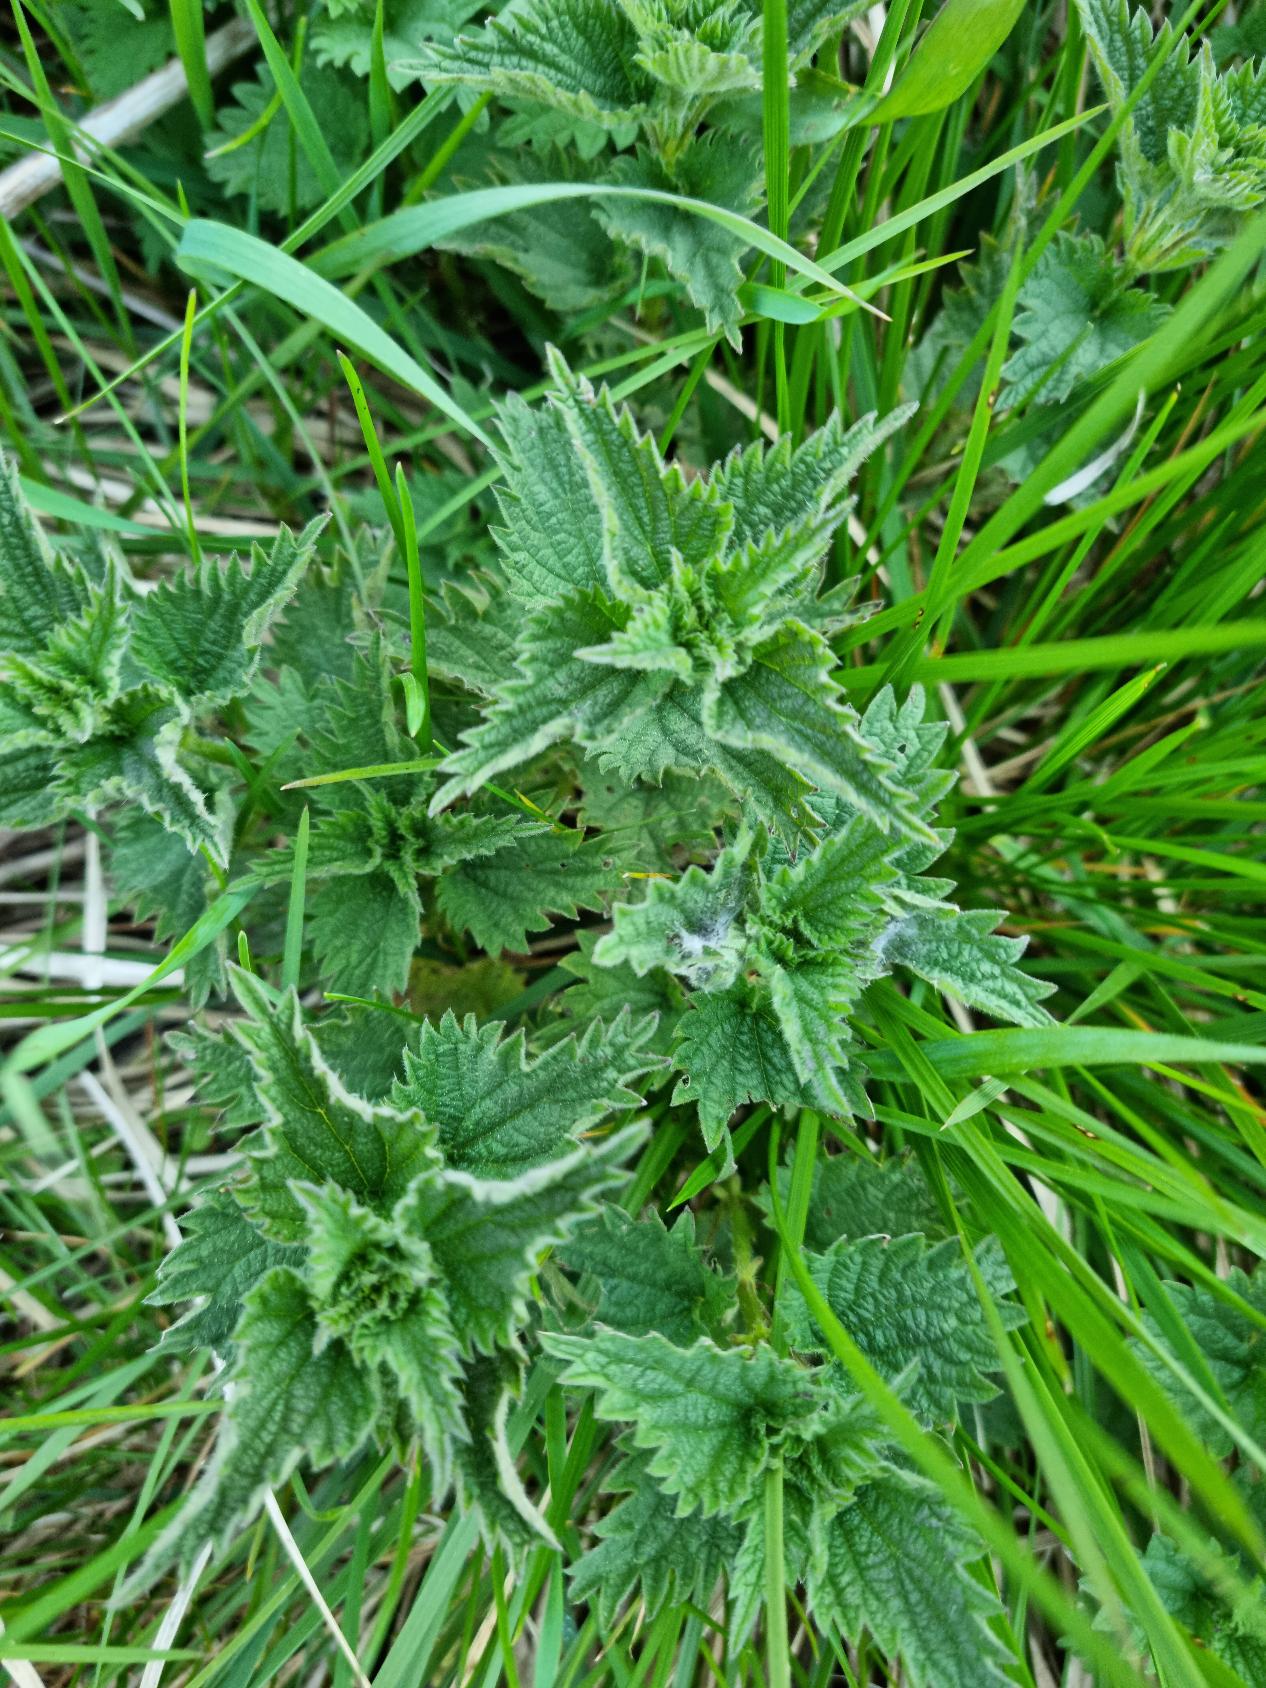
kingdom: Plantae
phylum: Tracheophyta
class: Magnoliopsida
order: Rosales
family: Urticaceae
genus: Urtica
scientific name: Urtica dioica
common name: Stor nælde
